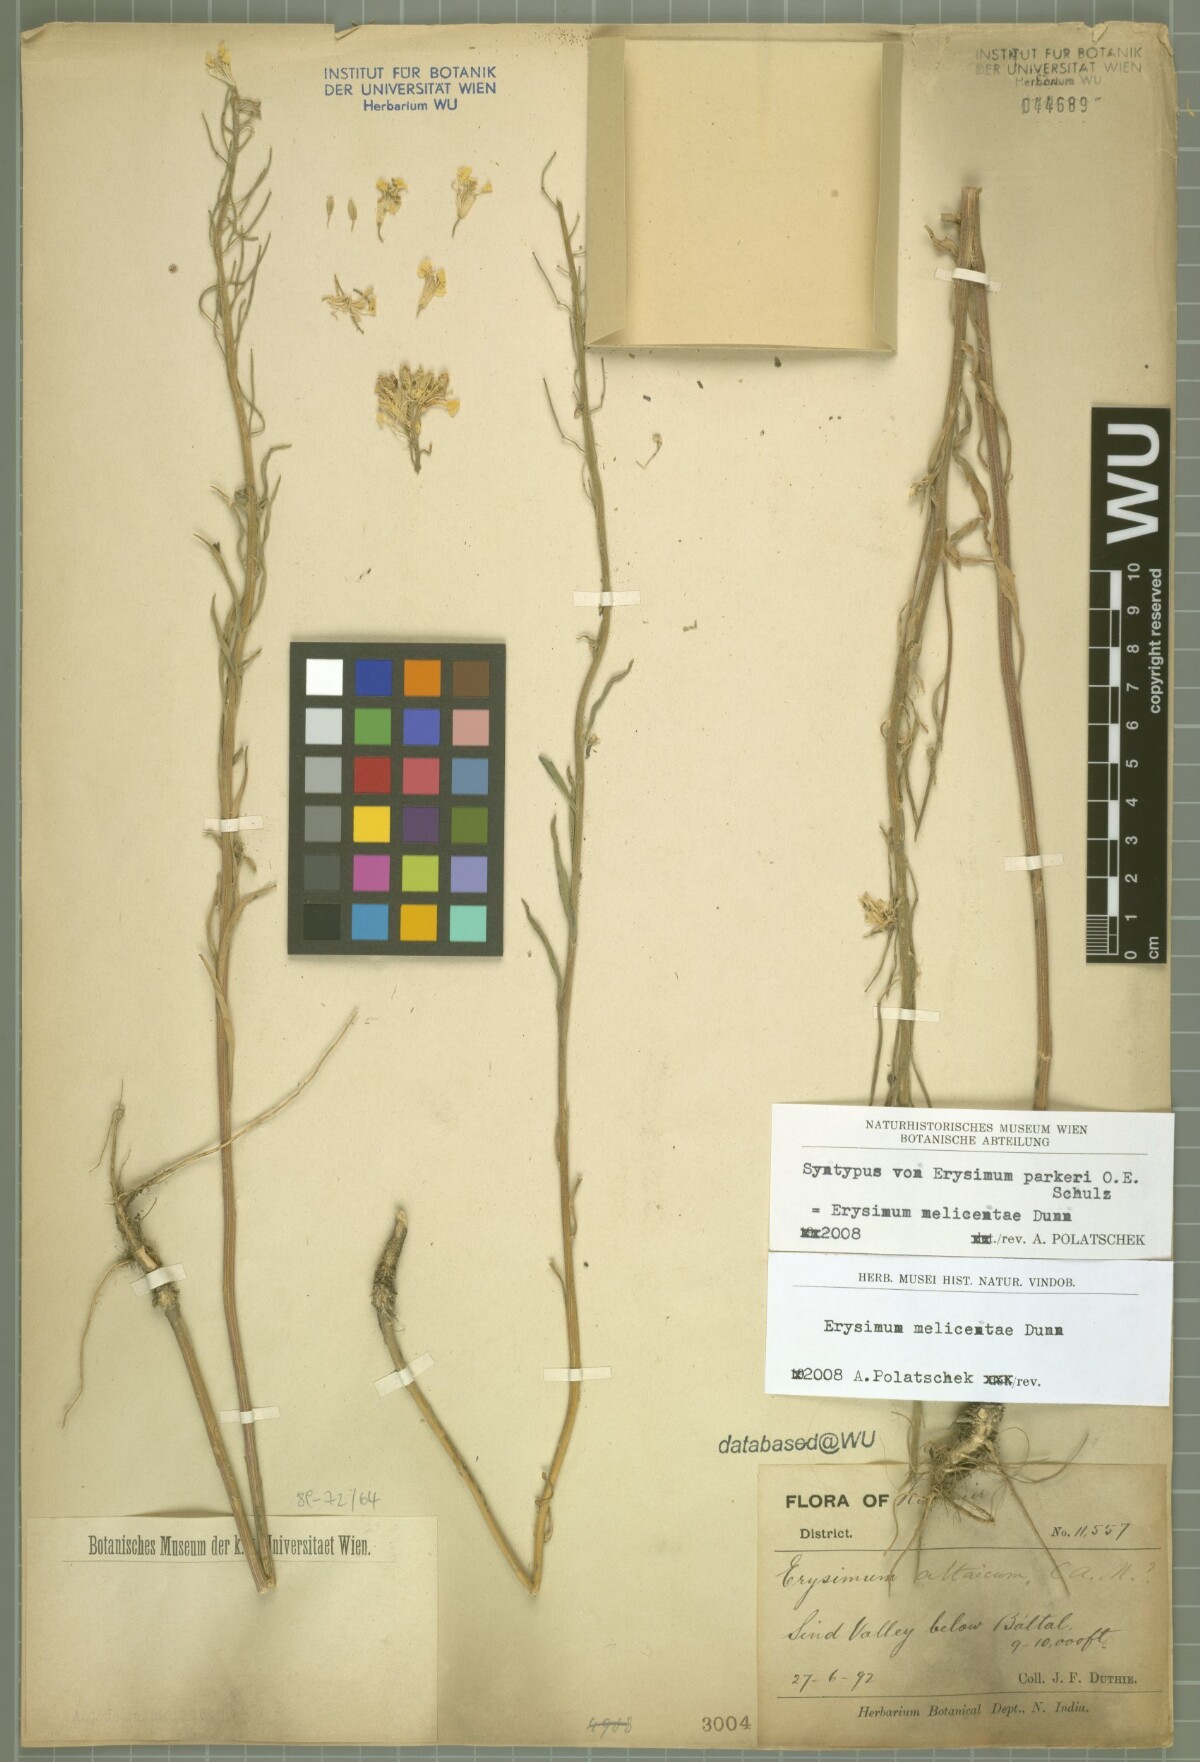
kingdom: Plantae
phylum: Tracheophyta
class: Magnoliopsida
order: Brassicales
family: Brassicaceae
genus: Erysimum
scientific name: Erysimum melicentae
